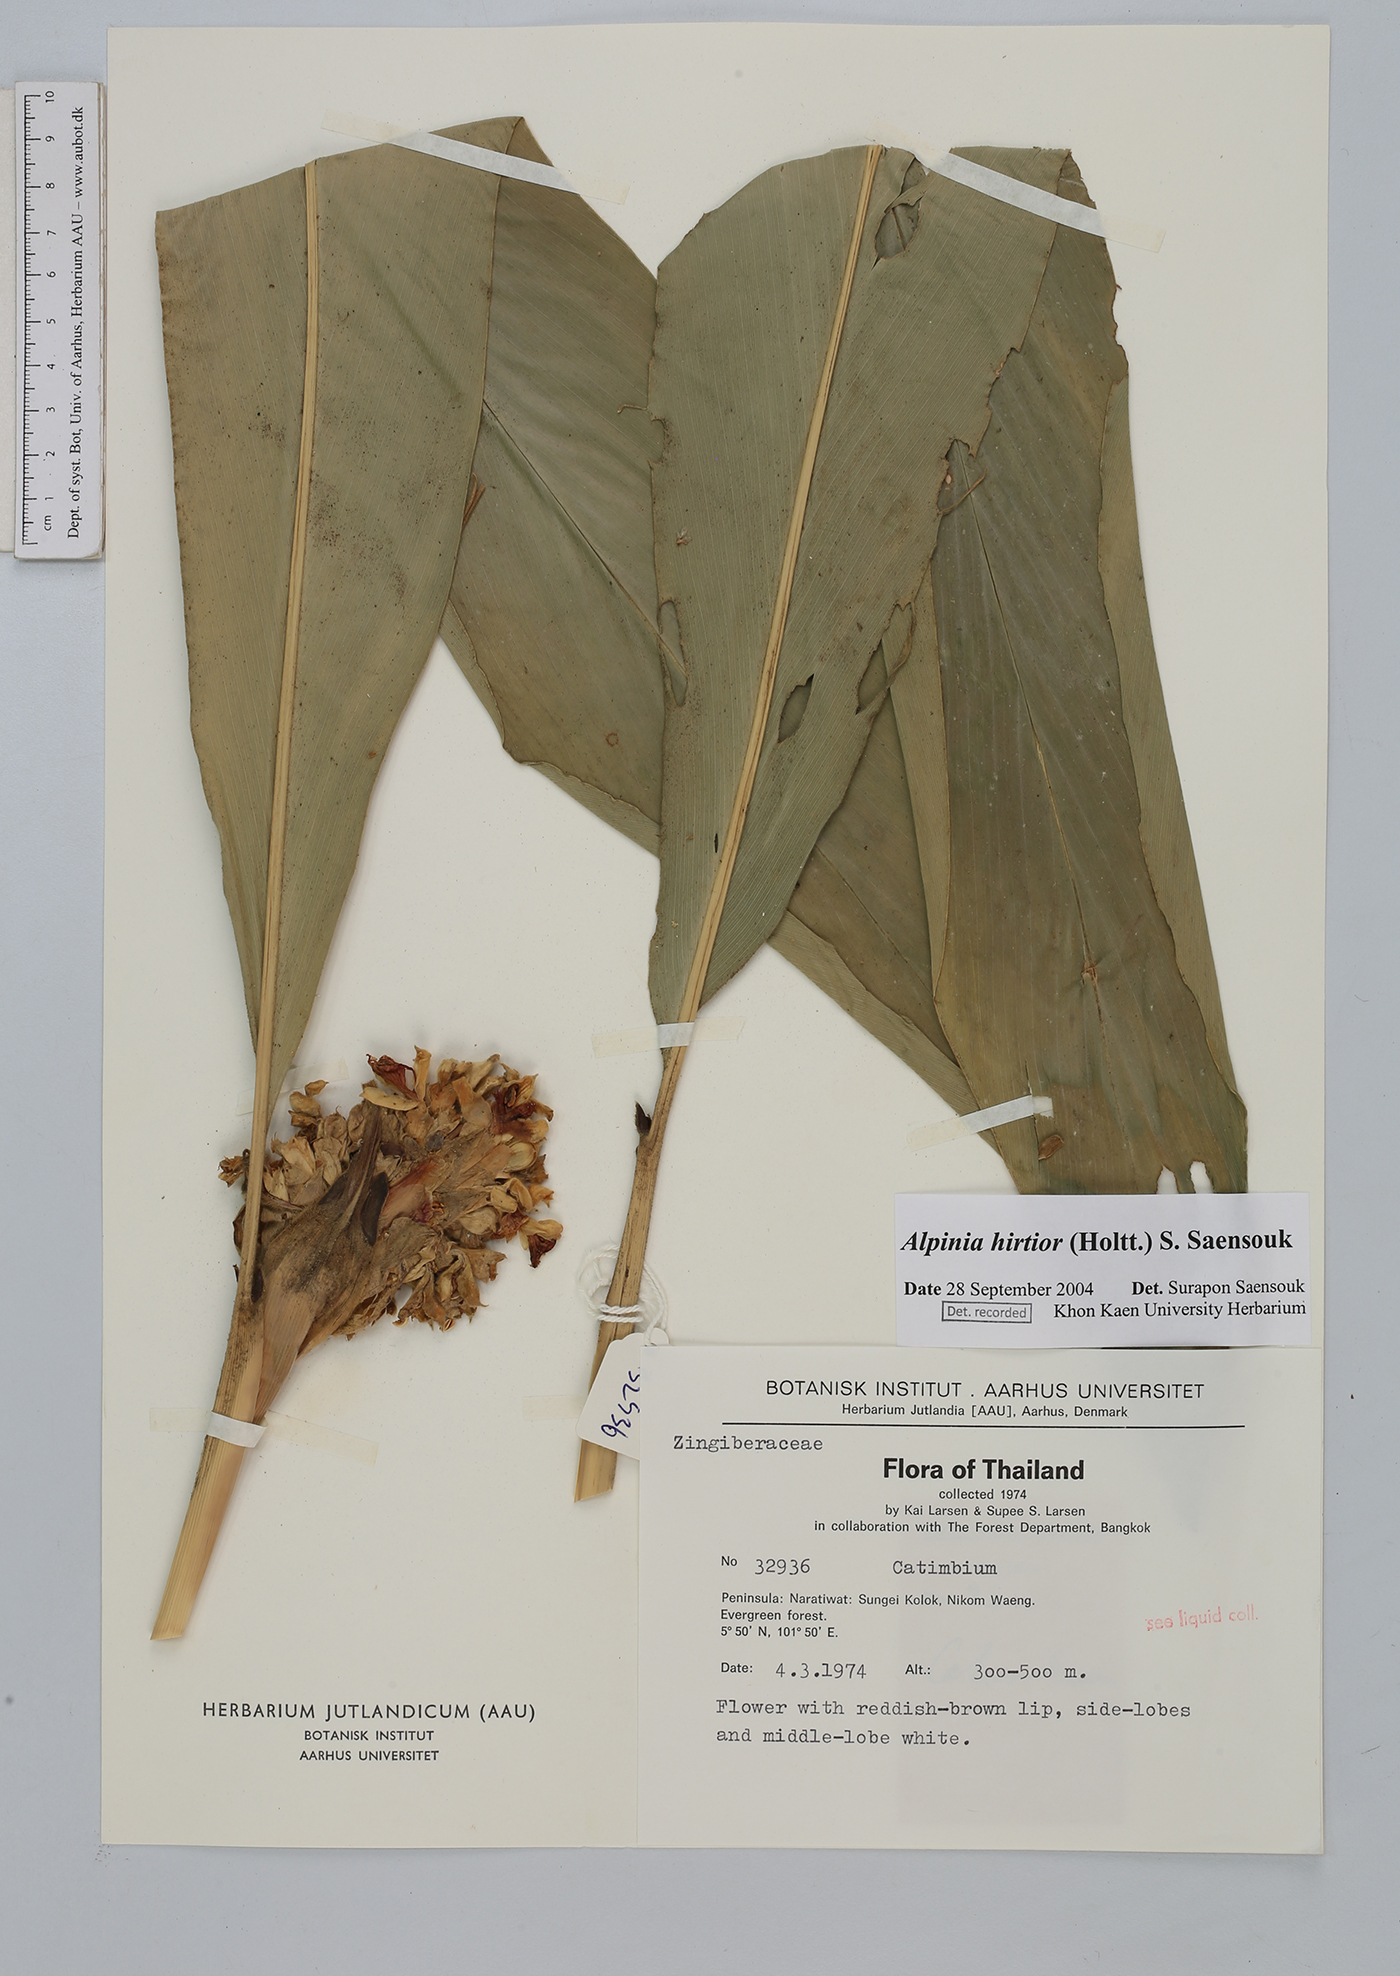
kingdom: Plantae
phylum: Tracheophyta
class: Liliopsida
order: Zingiberales
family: Zingiberaceae
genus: Alpinia
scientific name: Alpinia
